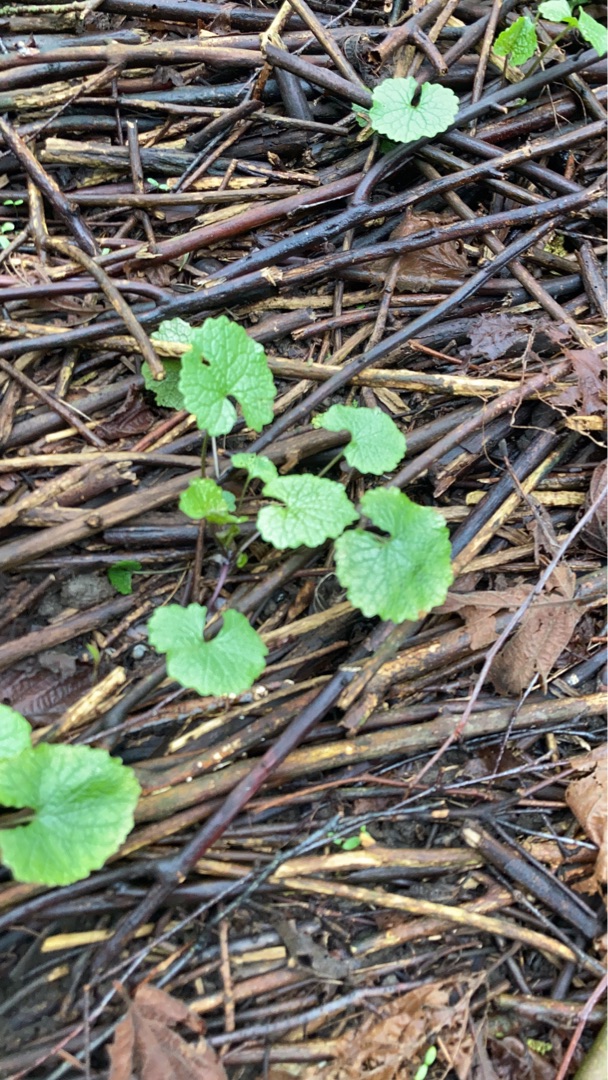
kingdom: Plantae
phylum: Tracheophyta
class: Magnoliopsida
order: Brassicales
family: Brassicaceae
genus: Alliaria
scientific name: Alliaria petiolata
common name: Løgkarse
